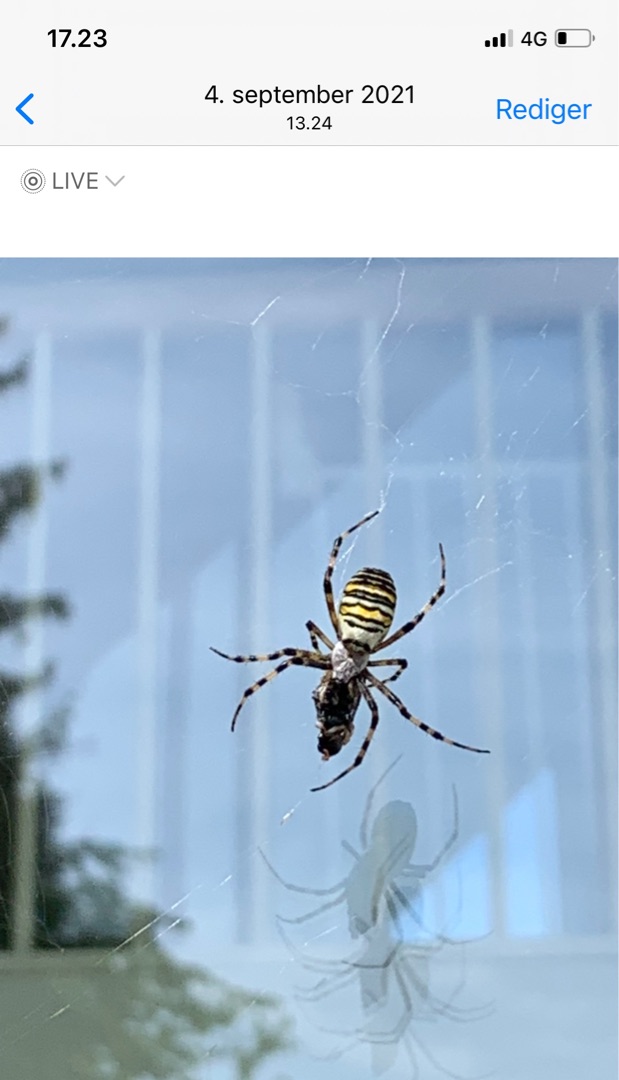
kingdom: Animalia
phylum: Arthropoda
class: Arachnida
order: Araneae
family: Araneidae
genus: Argiope
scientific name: Argiope bruennichi
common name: Hvepseedderkop
